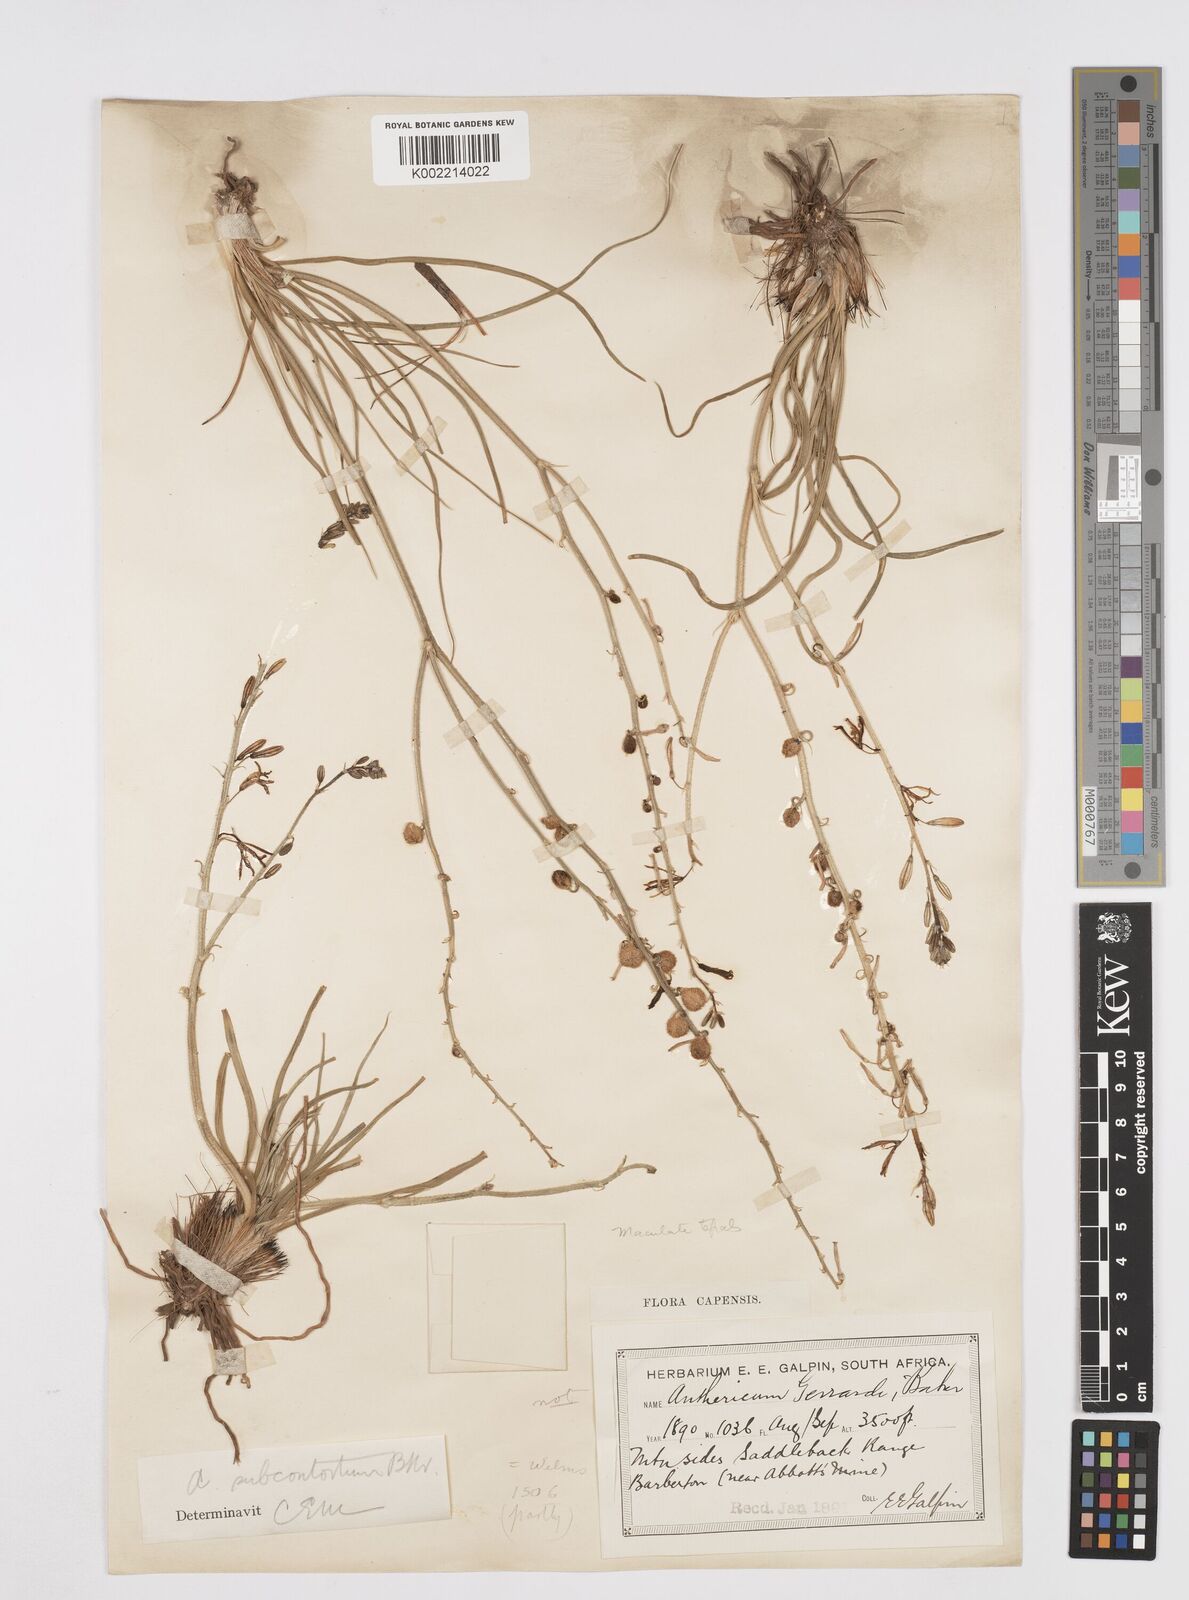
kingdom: Plantae
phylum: Tracheophyta
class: Liliopsida
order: Asparagales
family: Asphodelaceae
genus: Trachyandra
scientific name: Trachyandra gerrardii
